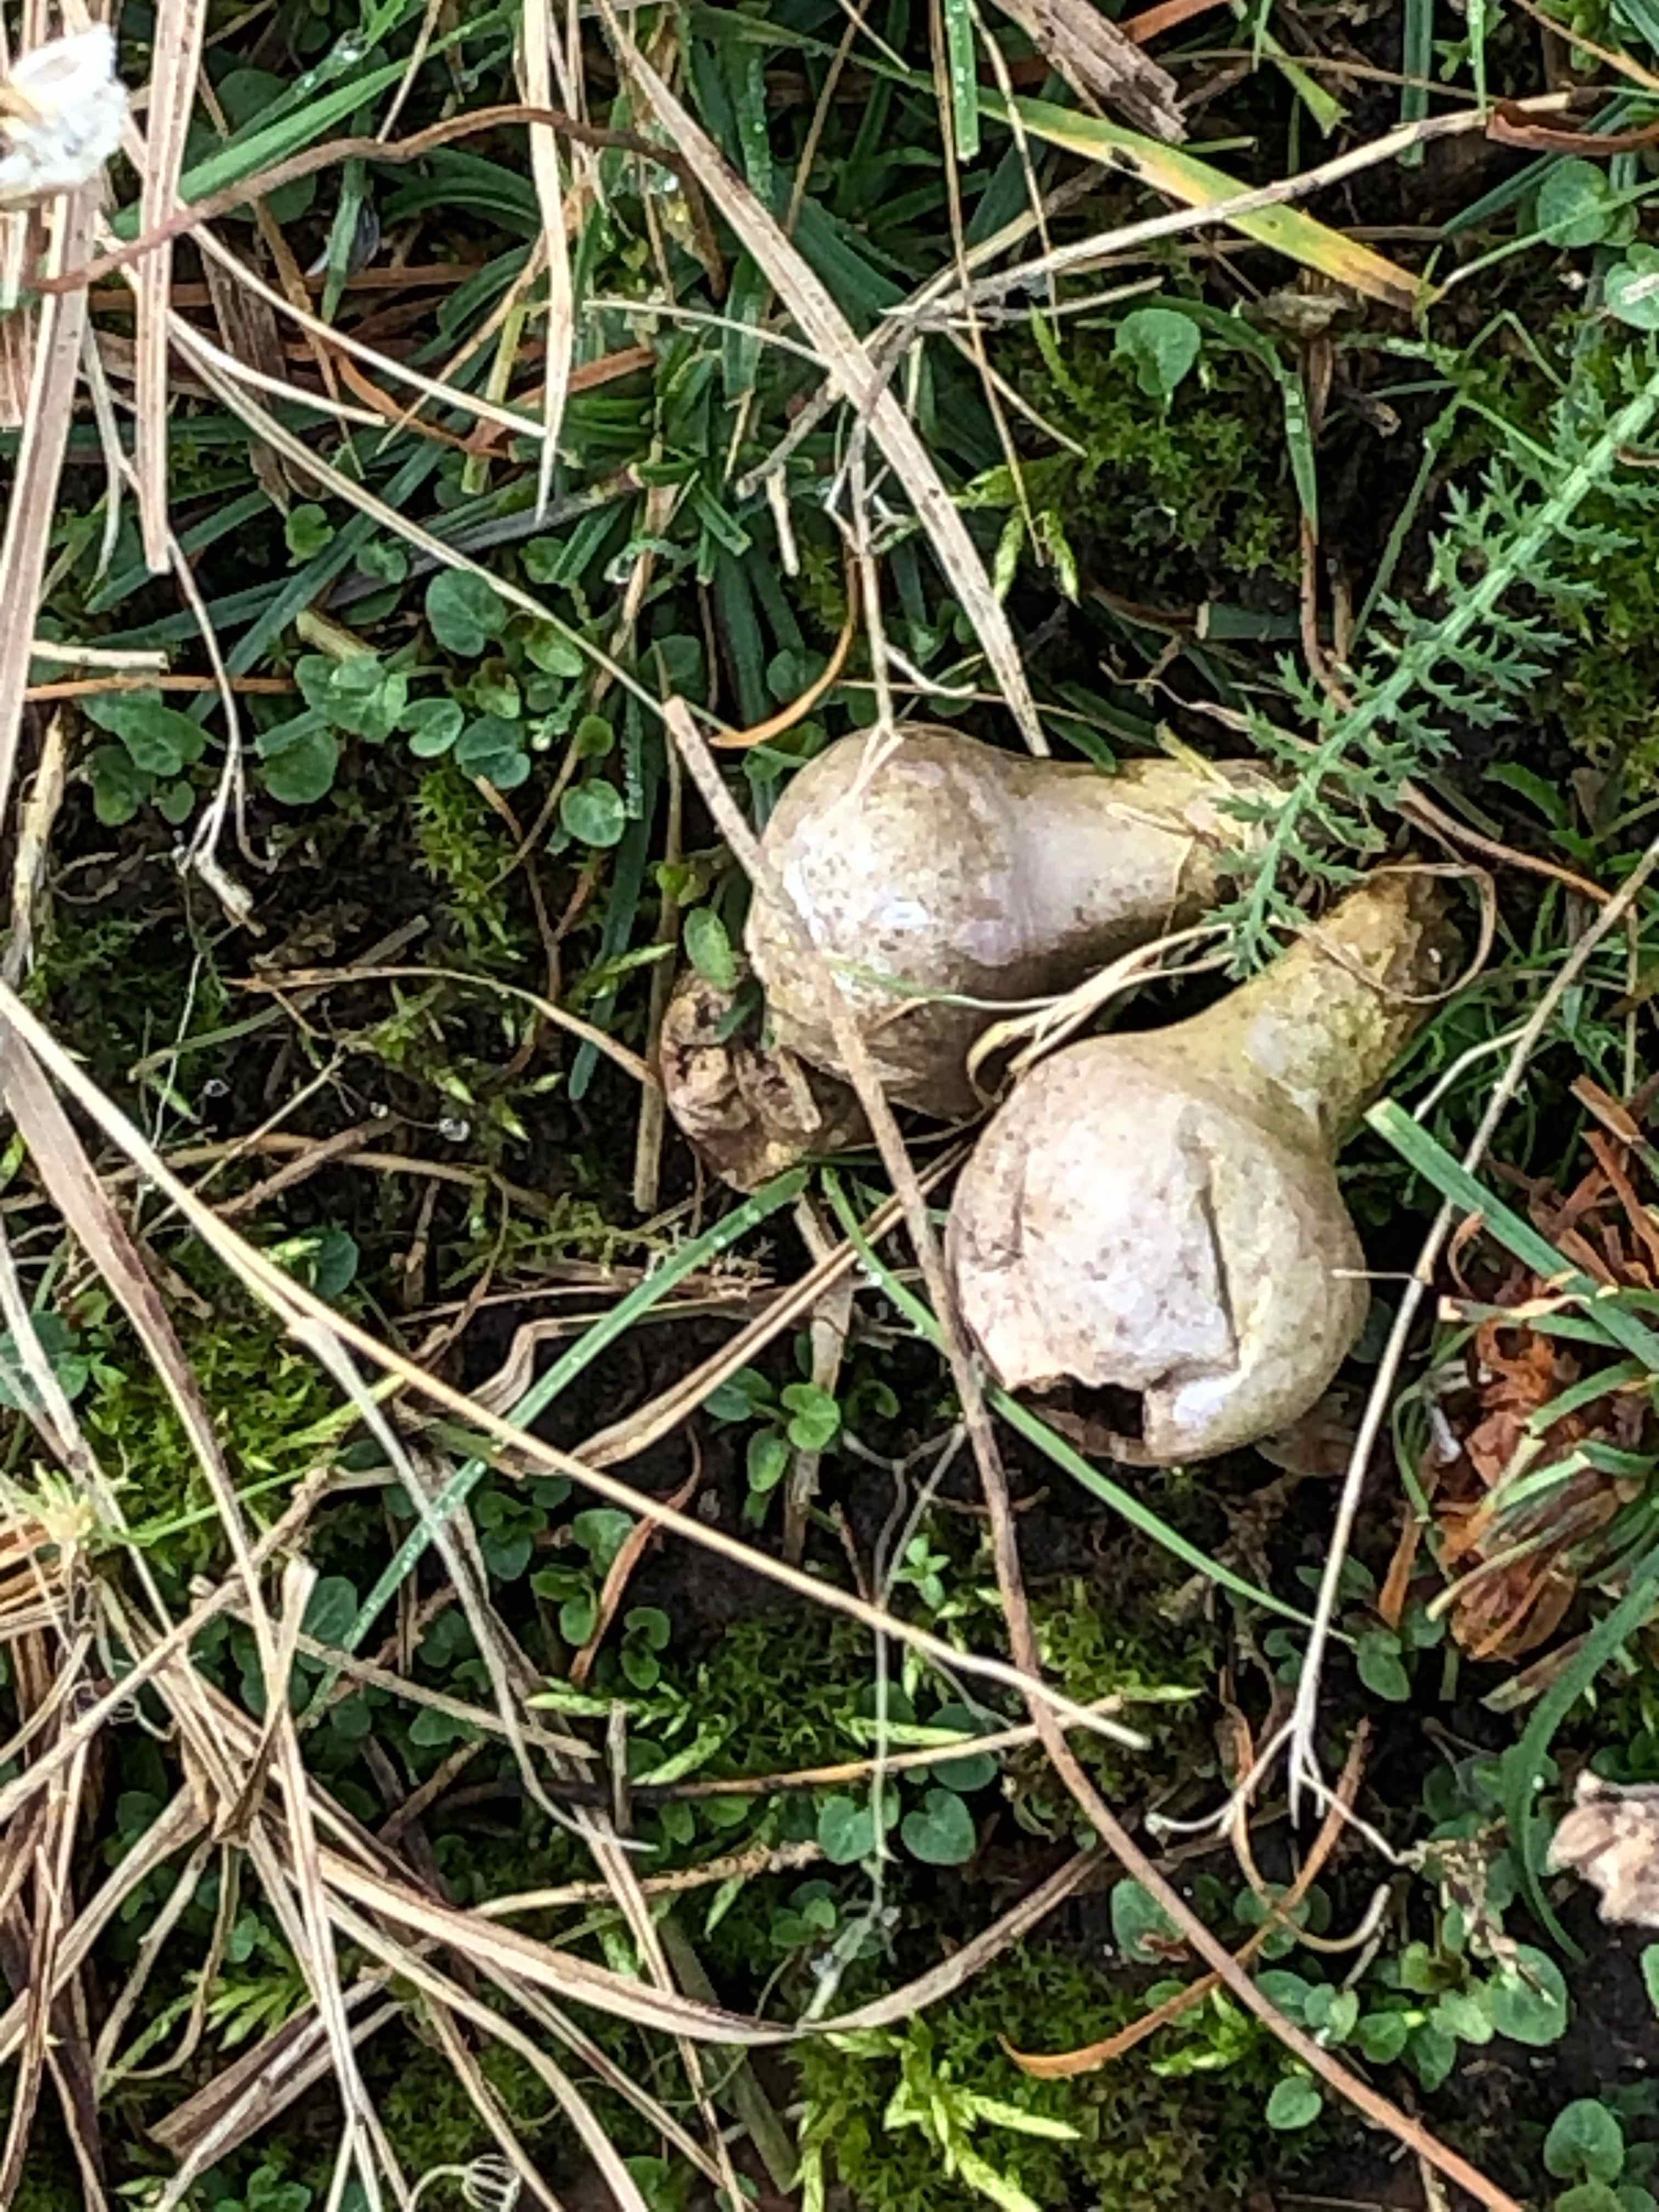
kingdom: Fungi
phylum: Basidiomycota
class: Agaricomycetes
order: Agaricales
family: Lycoperdaceae
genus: Lycoperdon
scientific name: Lycoperdon perlatum
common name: krystal-støvbold
